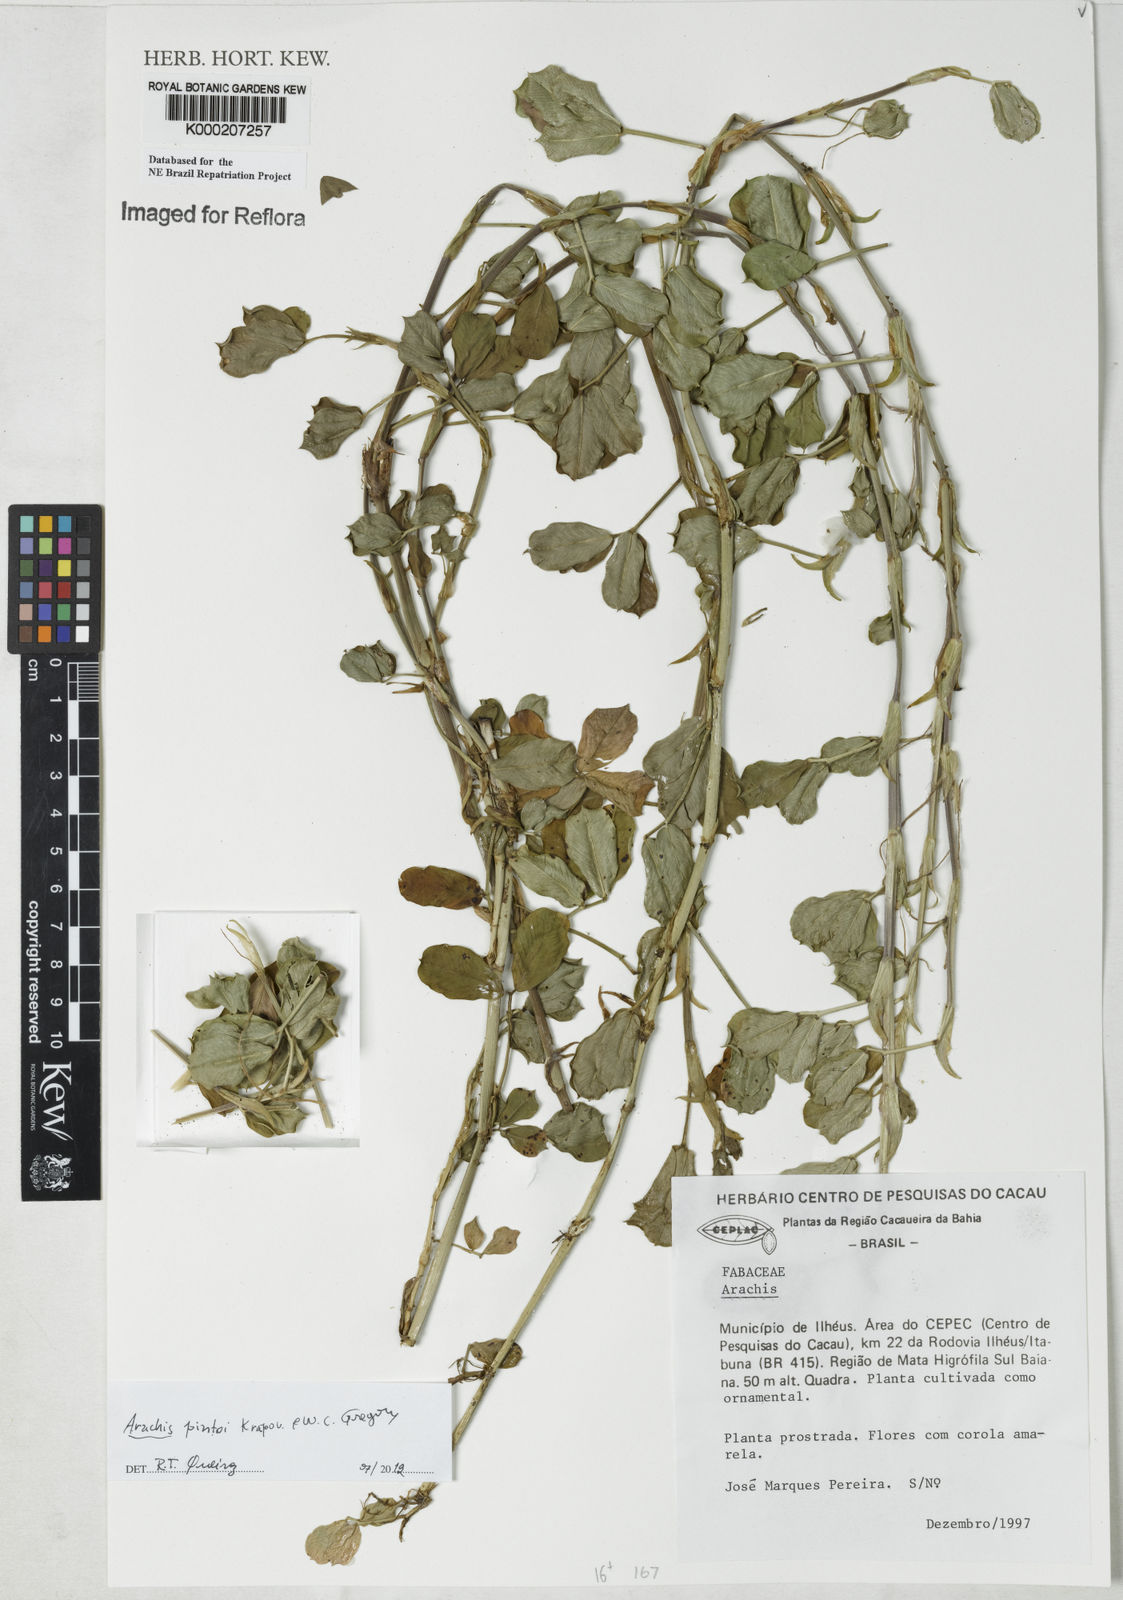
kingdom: Plantae
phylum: Tracheophyta
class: Magnoliopsida
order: Fabales
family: Fabaceae
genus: Arachis
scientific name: Arachis
